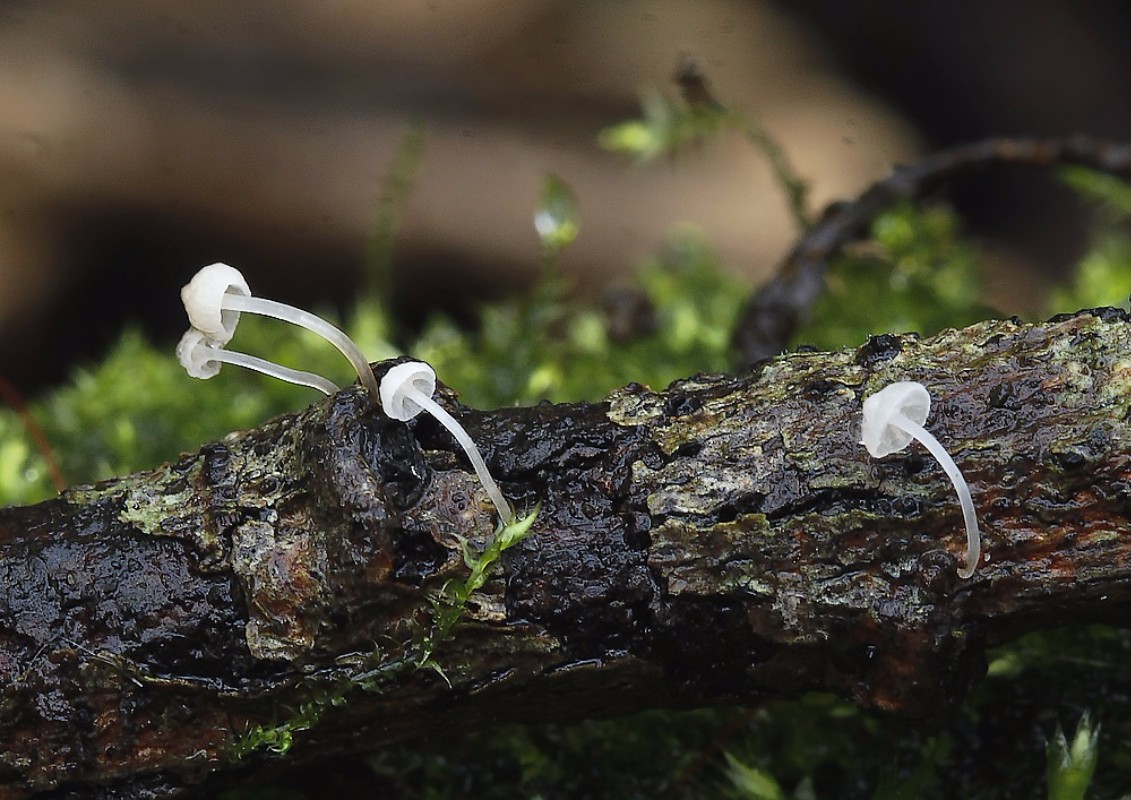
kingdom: Fungi
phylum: Basidiomycota
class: Agaricomycetes
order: Agaricales
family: Porotheleaceae
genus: Phloeomana
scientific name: Phloeomana speirea
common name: kvist-huesvamp
